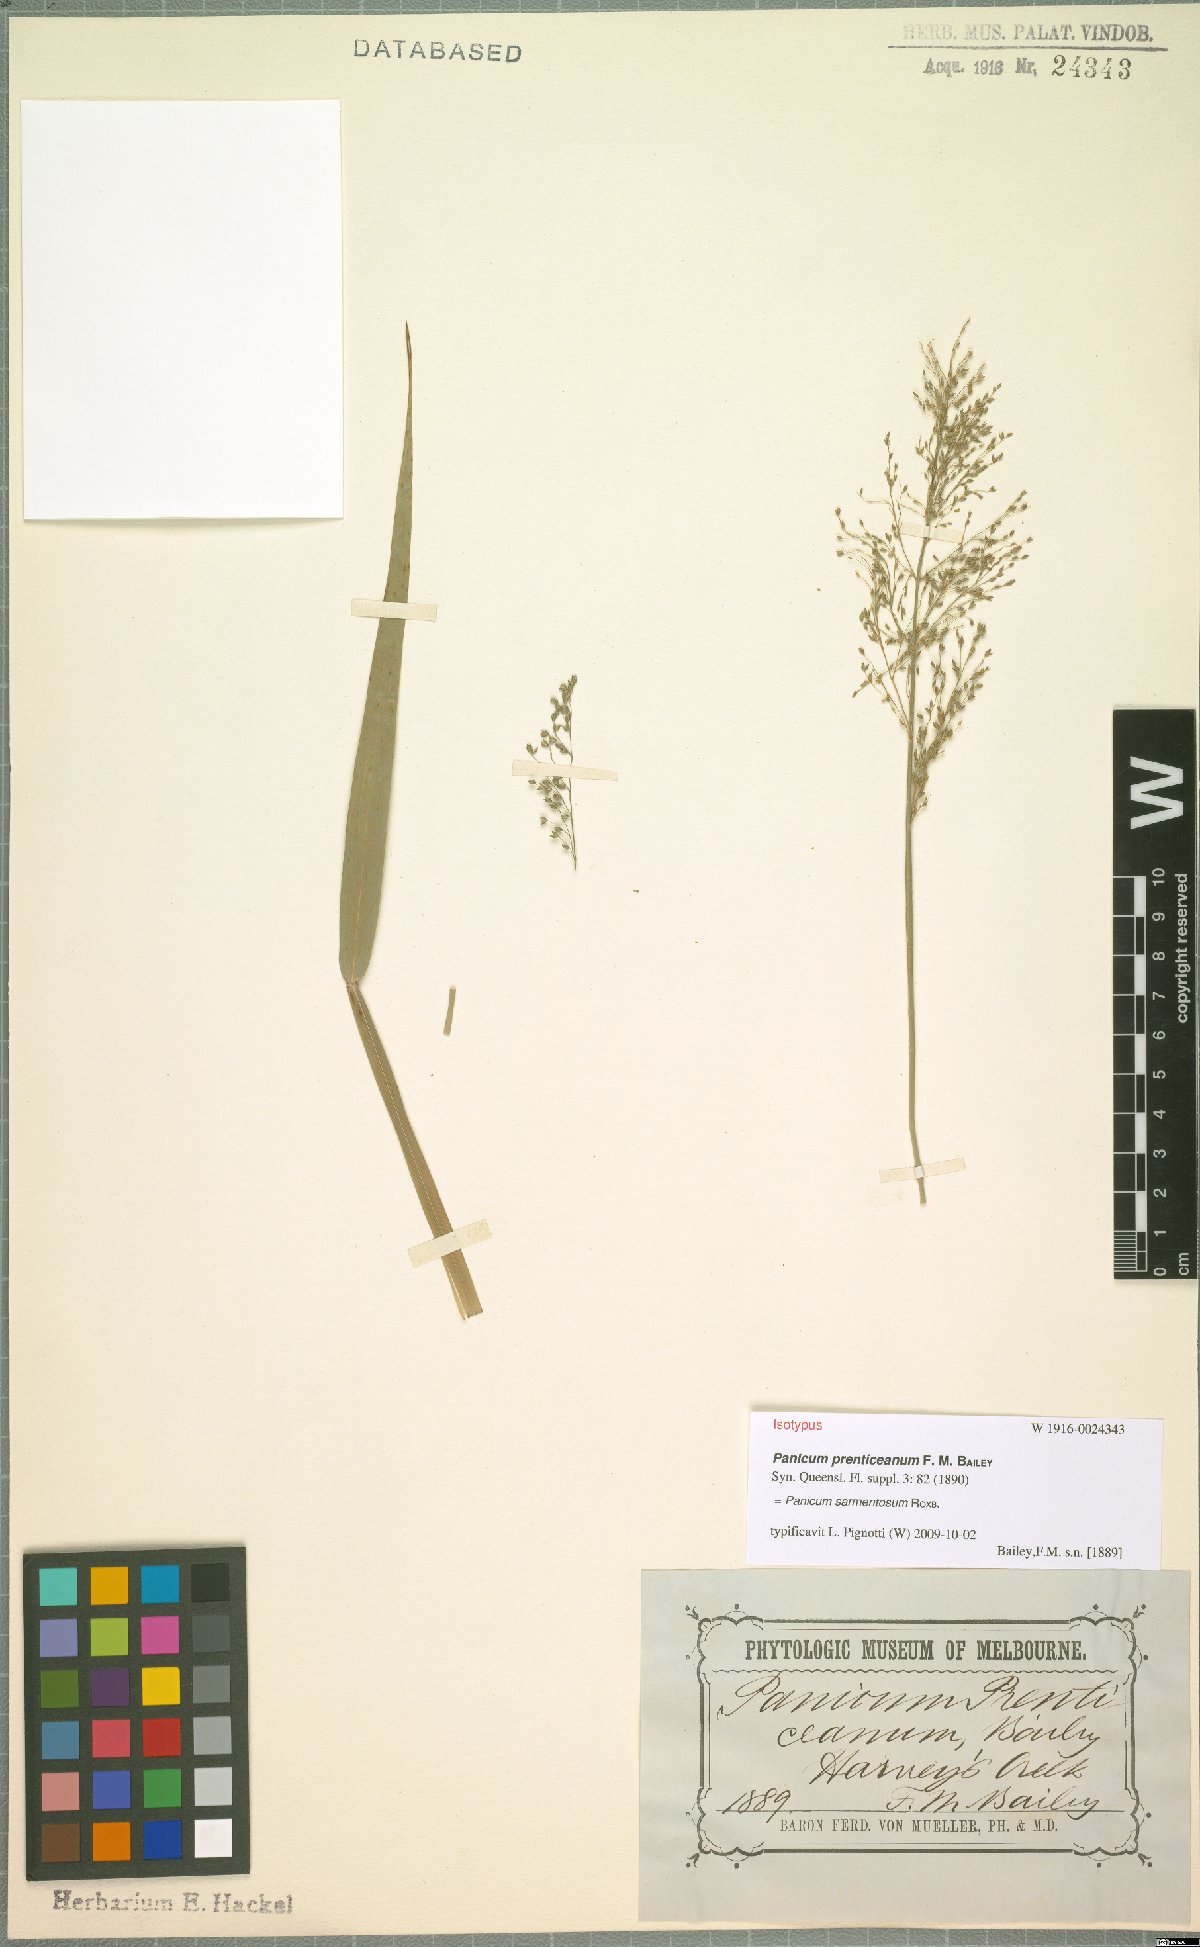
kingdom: Plantae
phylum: Tracheophyta
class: Liliopsida
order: Poales
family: Poaceae
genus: Panicum
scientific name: Panicum sarmentosum
